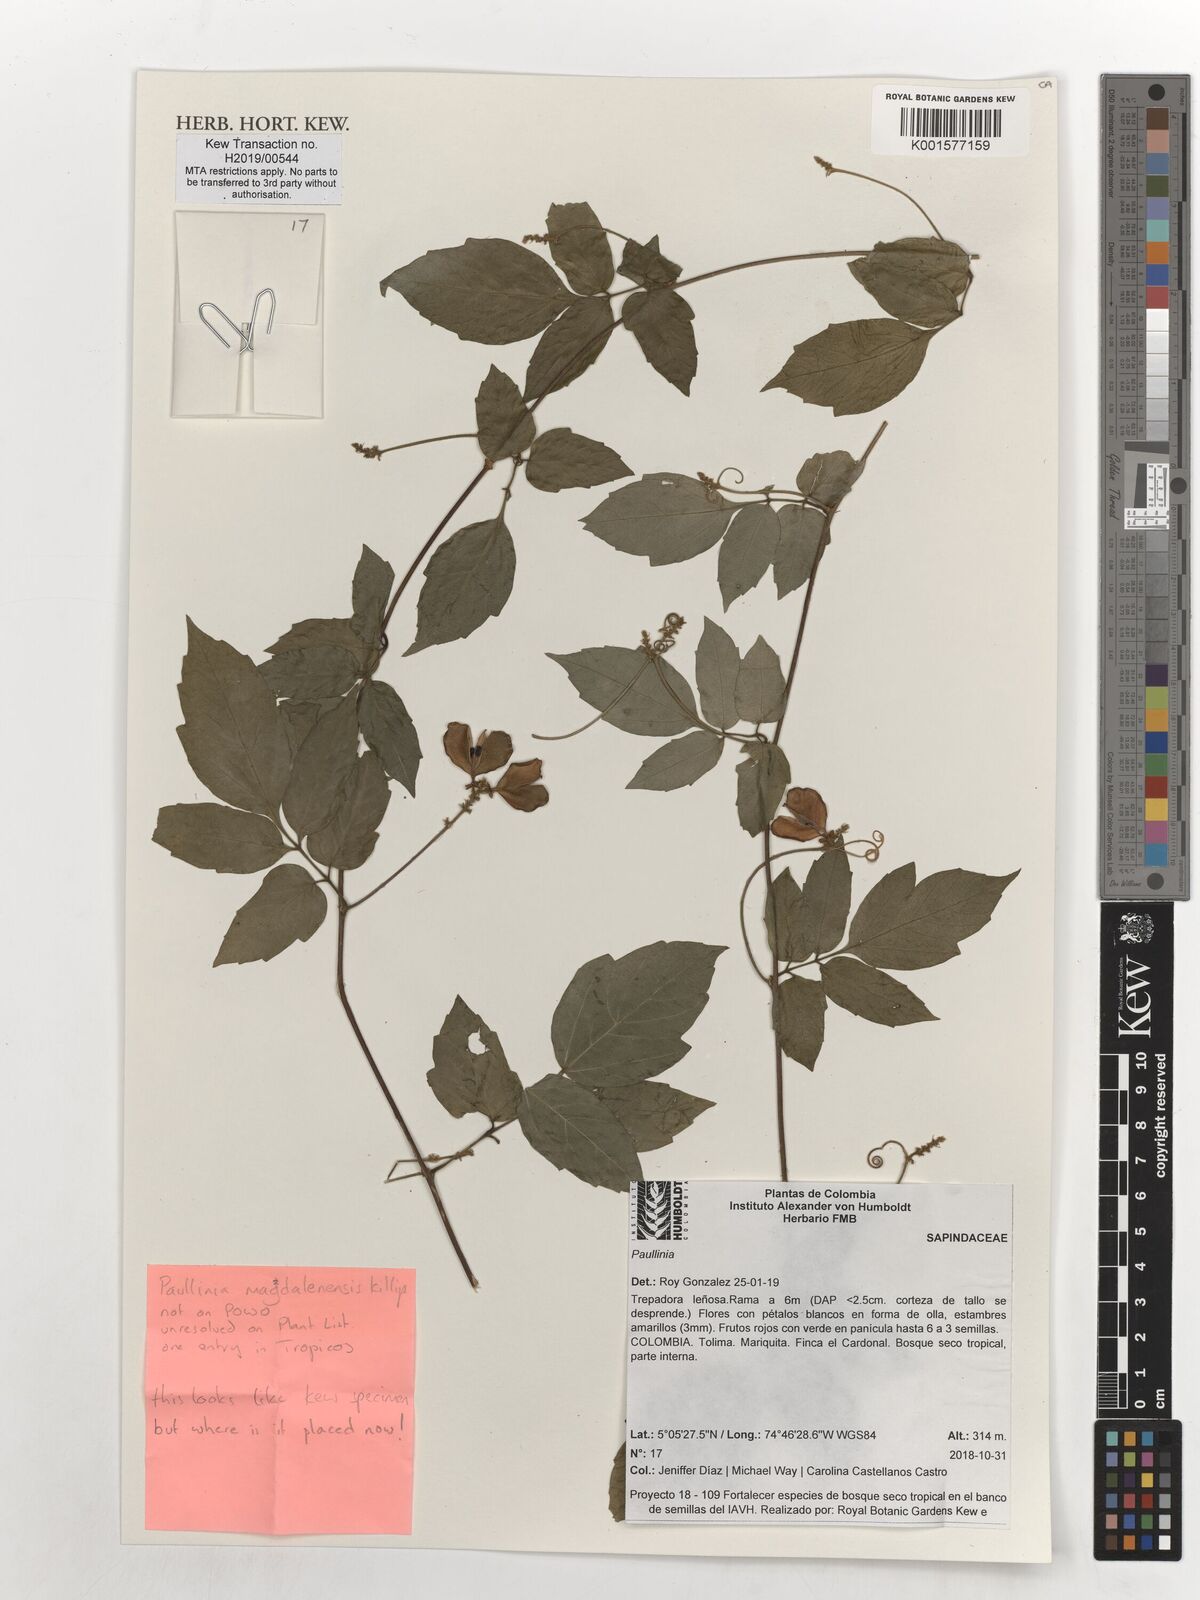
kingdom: Plantae
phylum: Tracheophyta
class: Magnoliopsida
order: Sapindales
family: Sapindaceae
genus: Paullinia
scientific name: Paullinia
